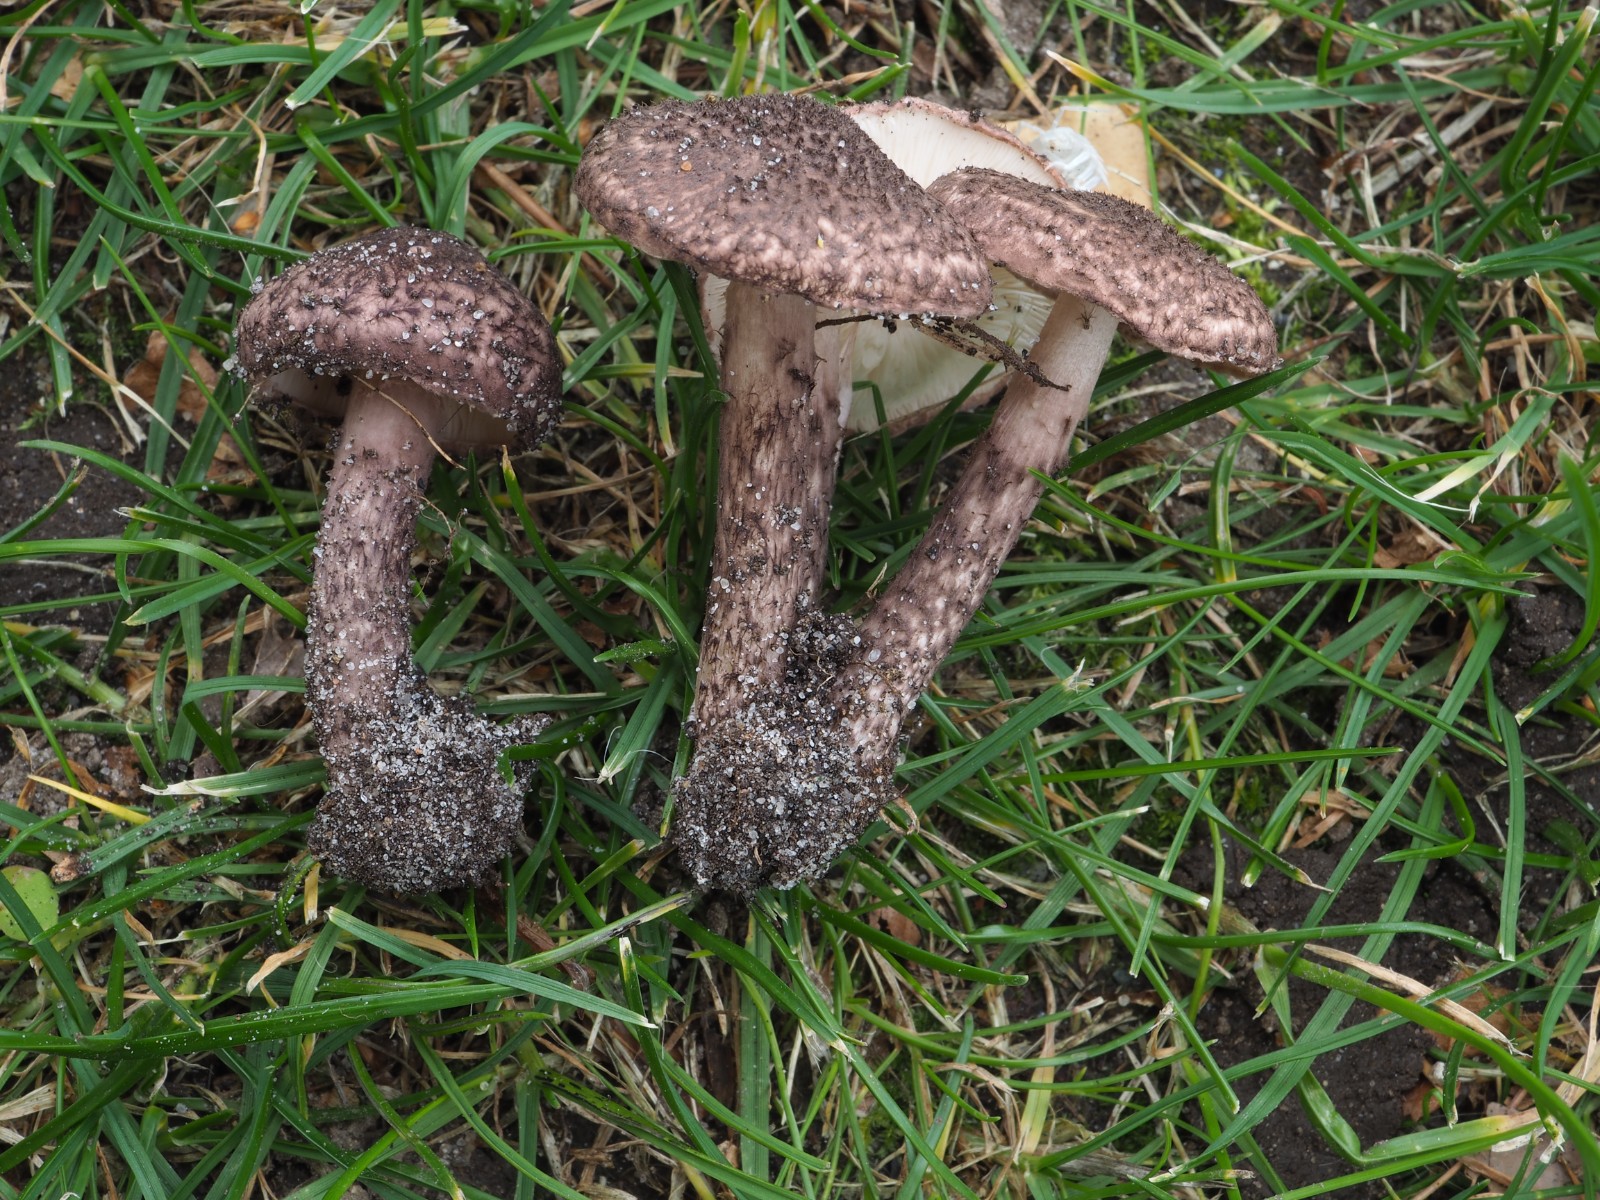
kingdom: Fungi
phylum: Basidiomycota
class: Agaricomycetes
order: Agaricales
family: Agaricaceae
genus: Lepiota
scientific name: Lepiota fuscovinacea
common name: vinrød parasolhat
